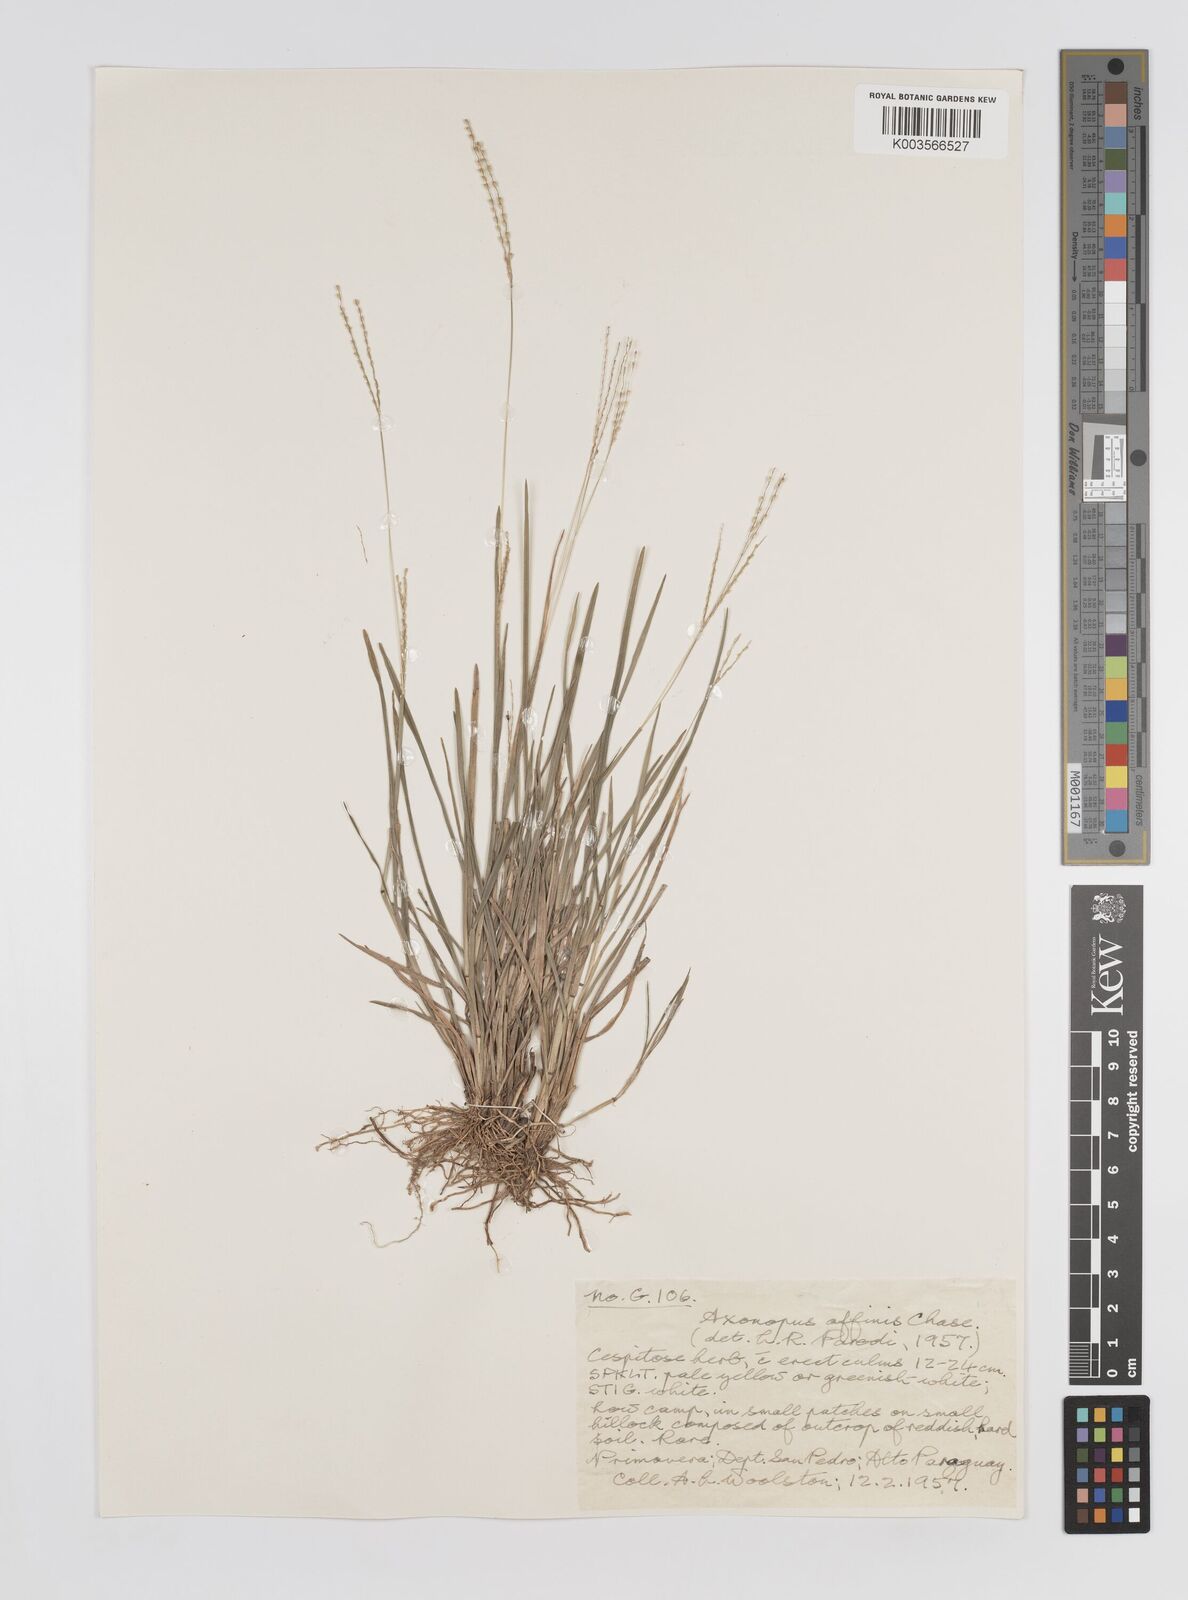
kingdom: Plantae
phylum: Tracheophyta
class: Liliopsida
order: Poales
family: Poaceae
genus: Axonopus
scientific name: Axonopus fissifolius
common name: Common carpetgrass
